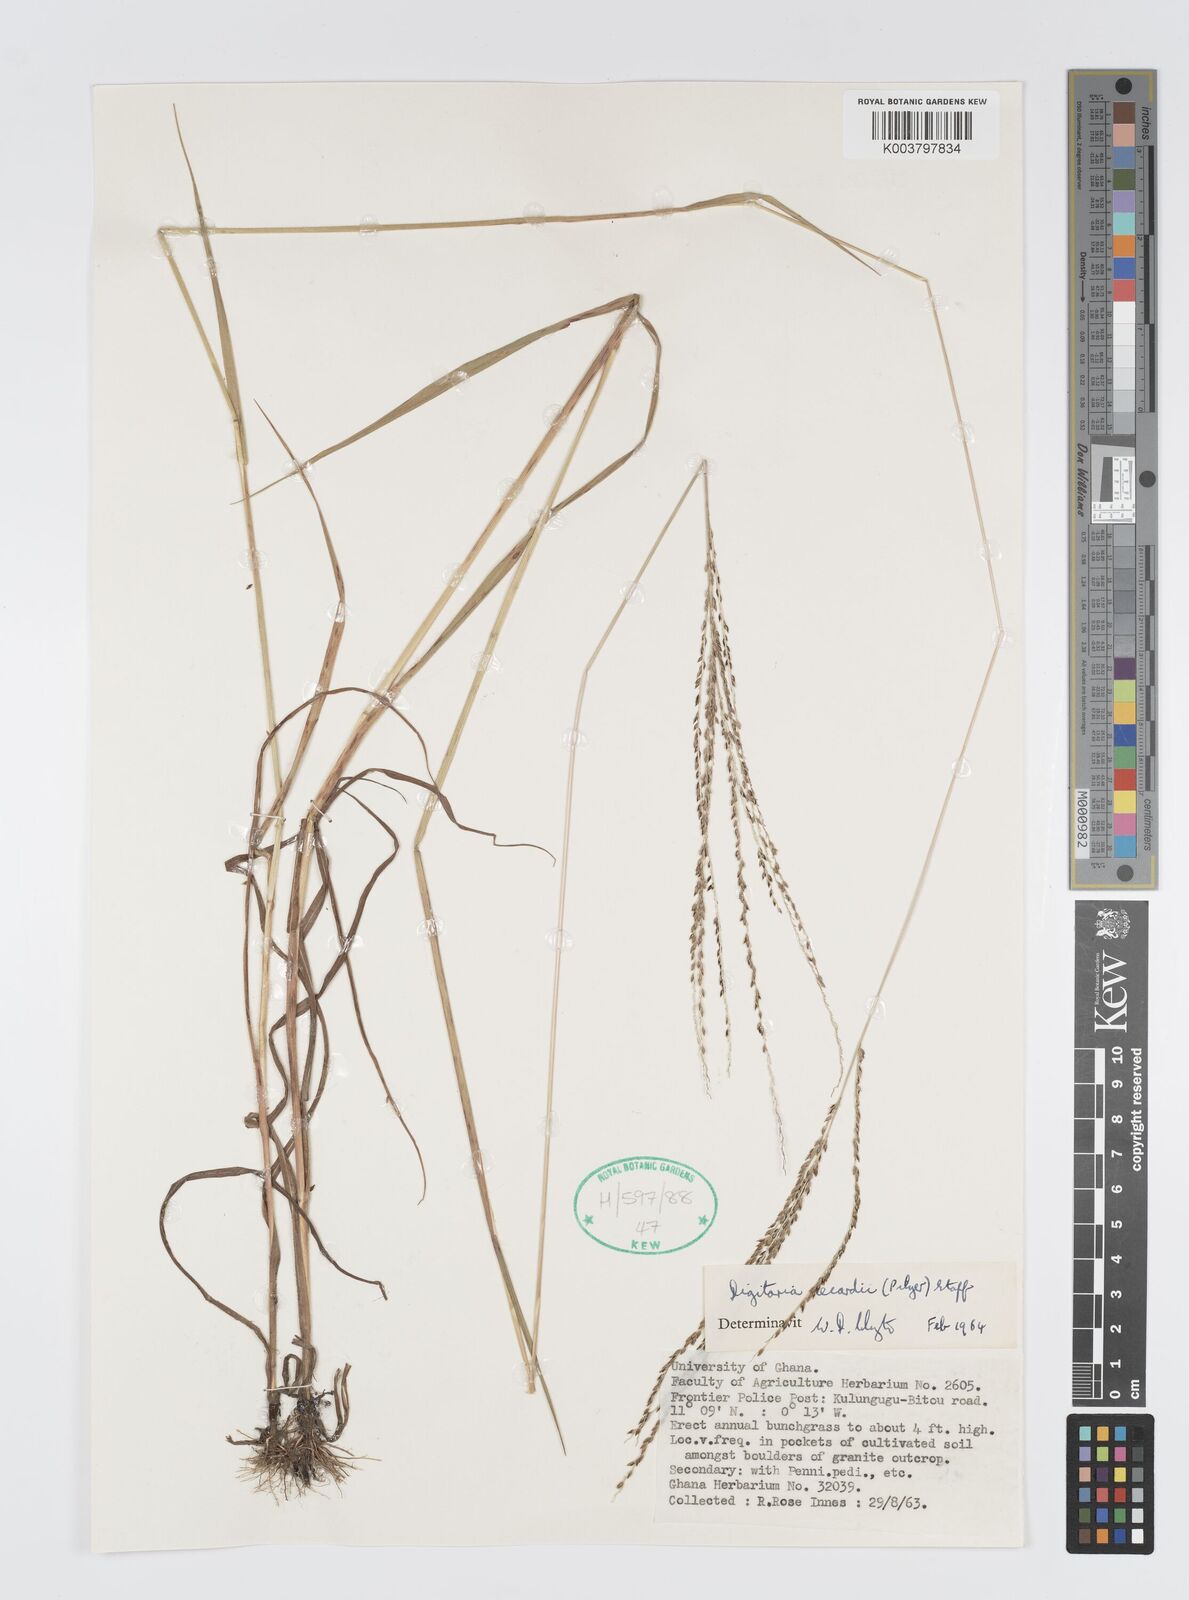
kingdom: Plantae
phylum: Tracheophyta
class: Liliopsida
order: Poales
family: Poaceae
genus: Digitaria
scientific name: Digitaria
